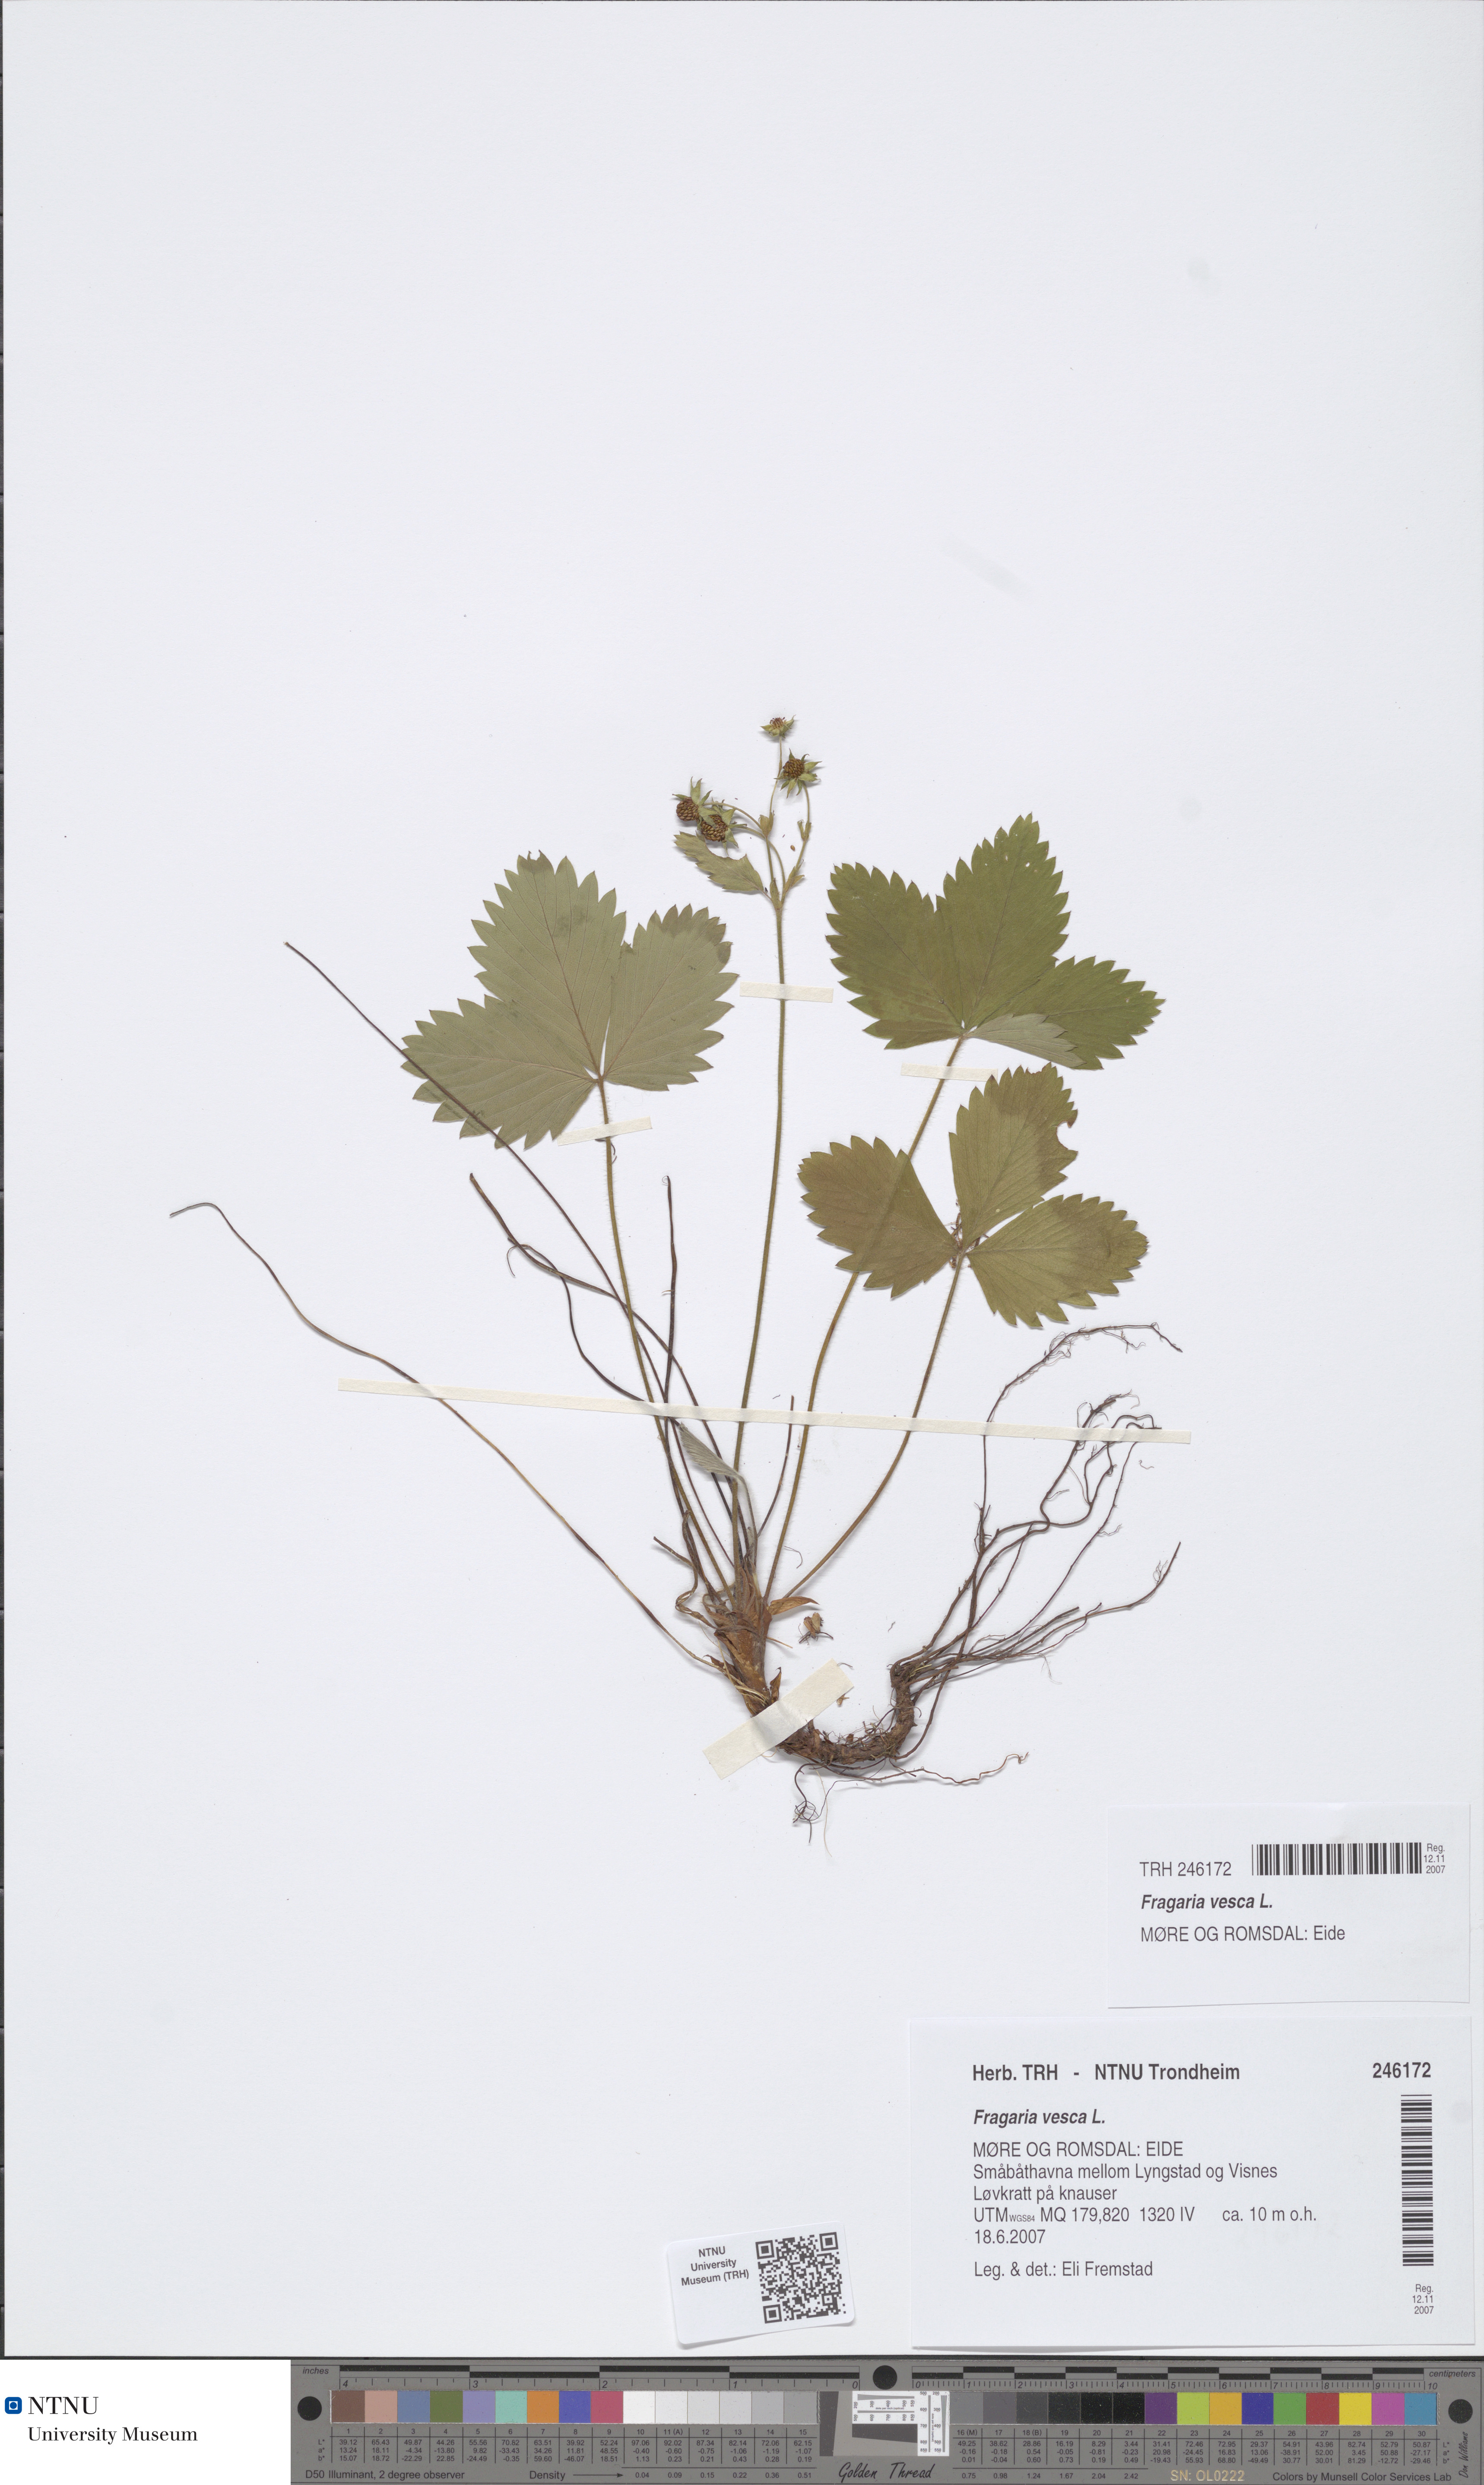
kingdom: Plantae
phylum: Tracheophyta
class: Magnoliopsida
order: Rosales
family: Rosaceae
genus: Fragaria
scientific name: Fragaria vesca
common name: Wild strawberry
